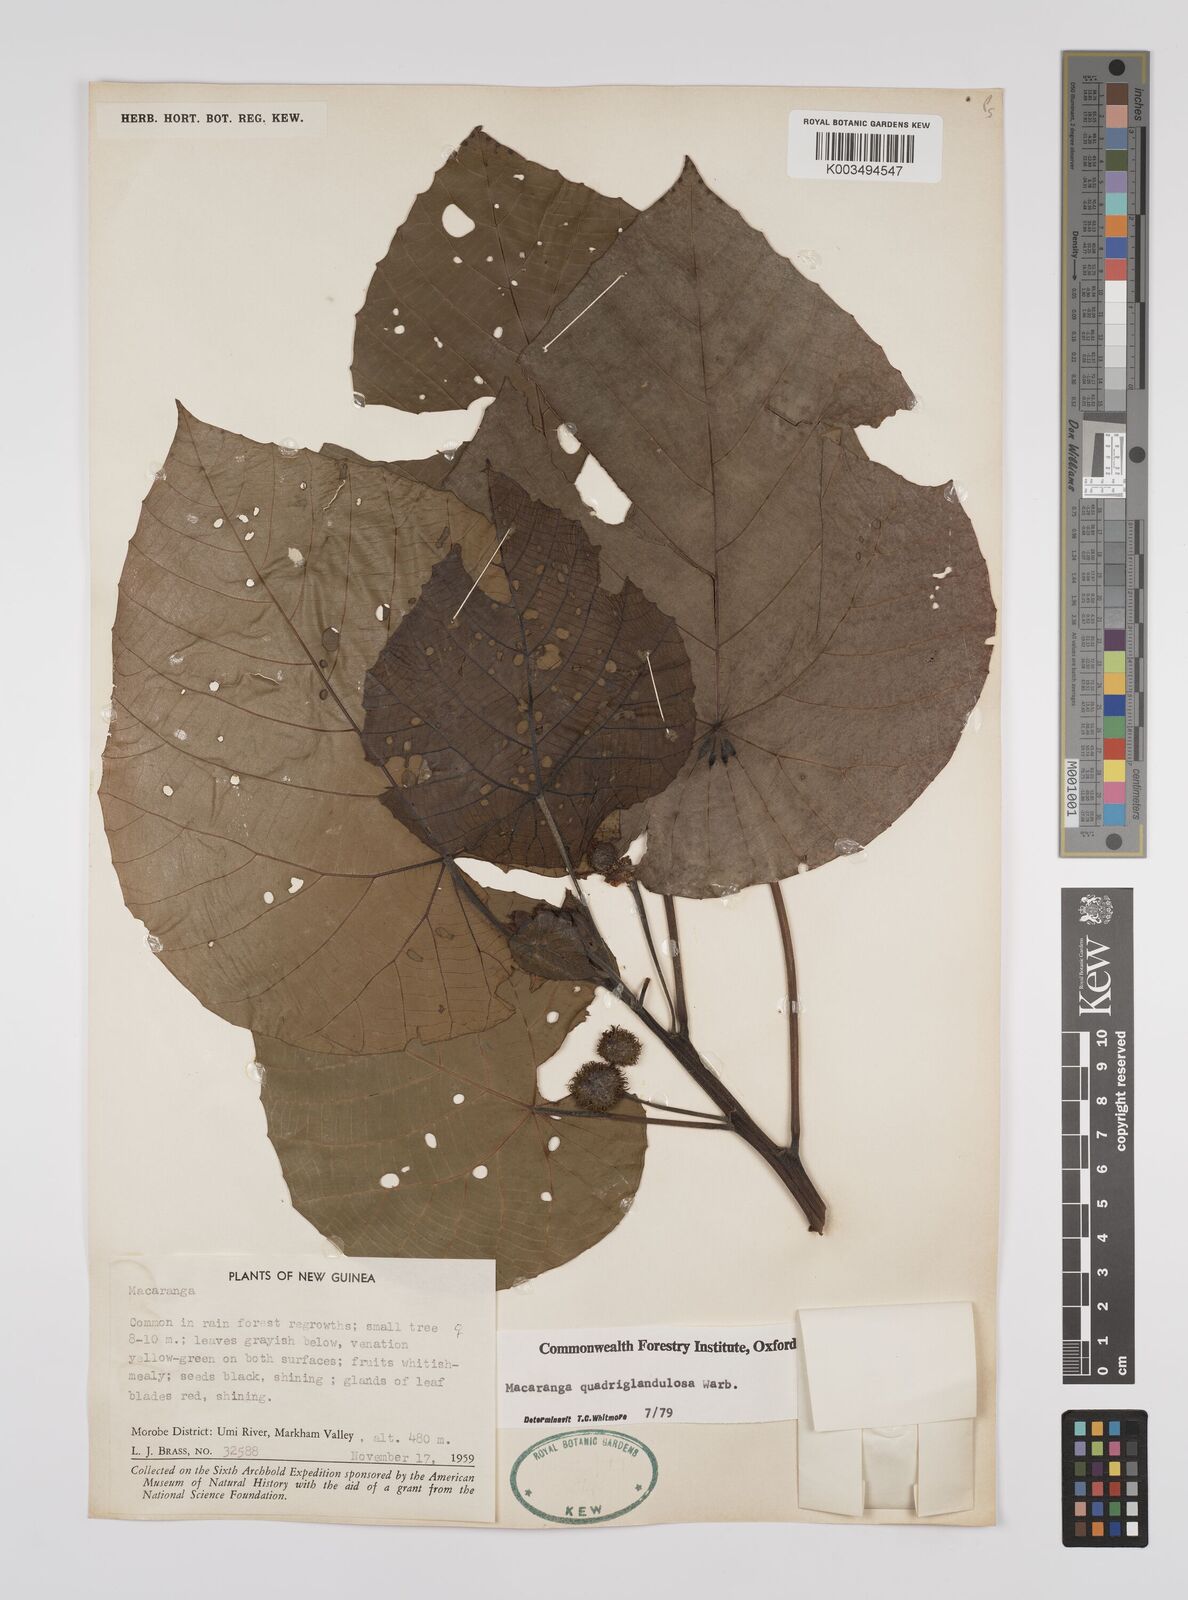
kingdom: Plantae
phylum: Tracheophyta
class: Magnoliopsida
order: Malpighiales
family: Euphorbiaceae
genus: Macaranga
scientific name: Macaranga quadriglandulosa
